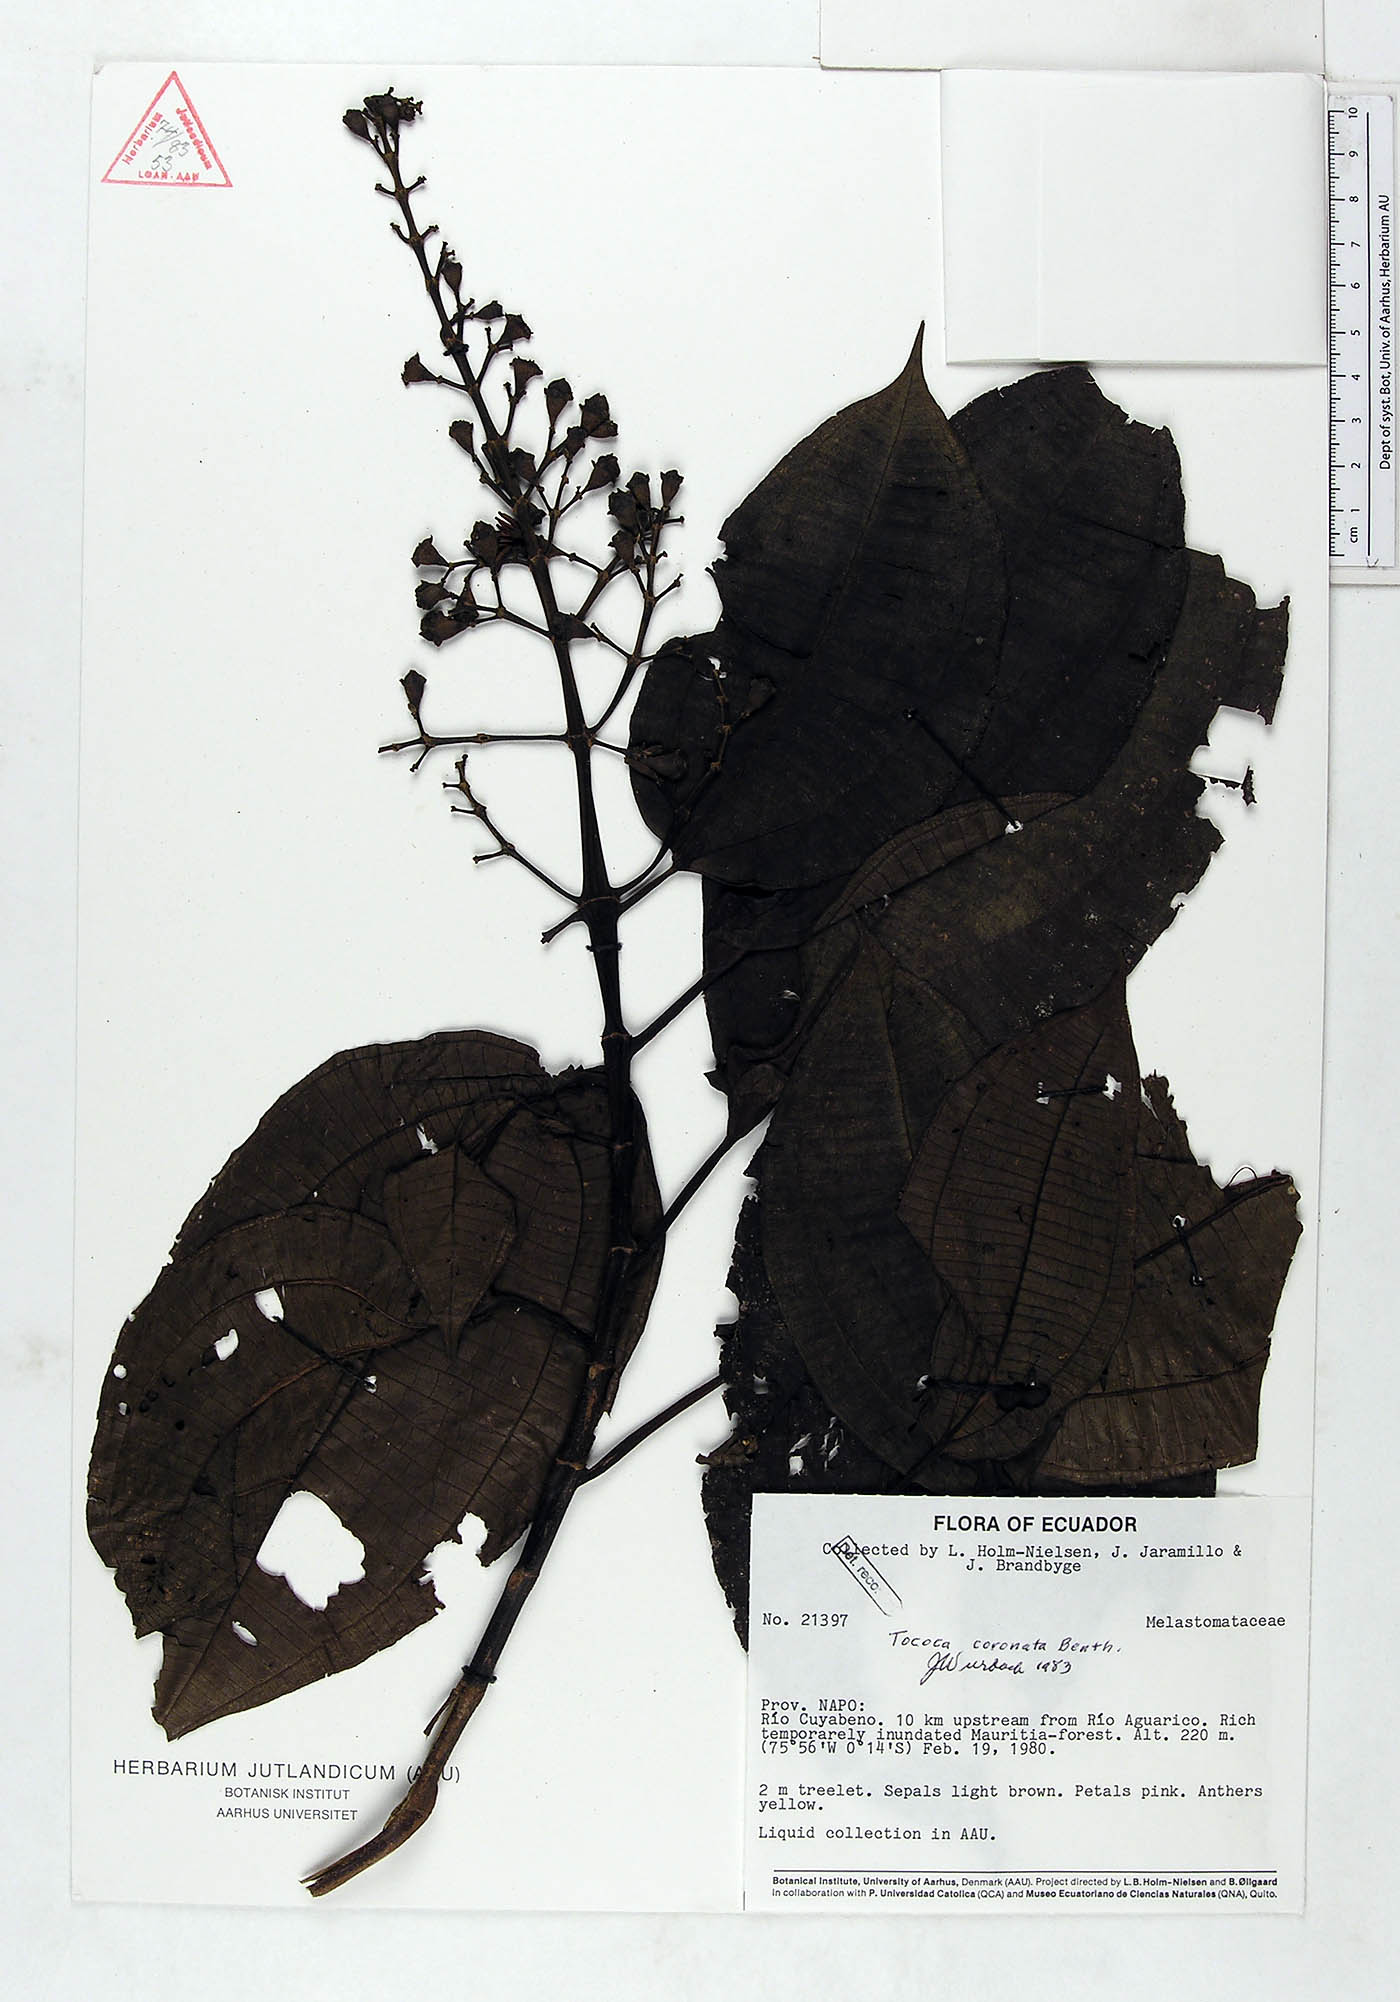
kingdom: Plantae
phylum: Tracheophyta
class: Magnoliopsida
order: Myrtales
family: Melastomataceae
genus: Miconia
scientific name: Miconia tococoronata
